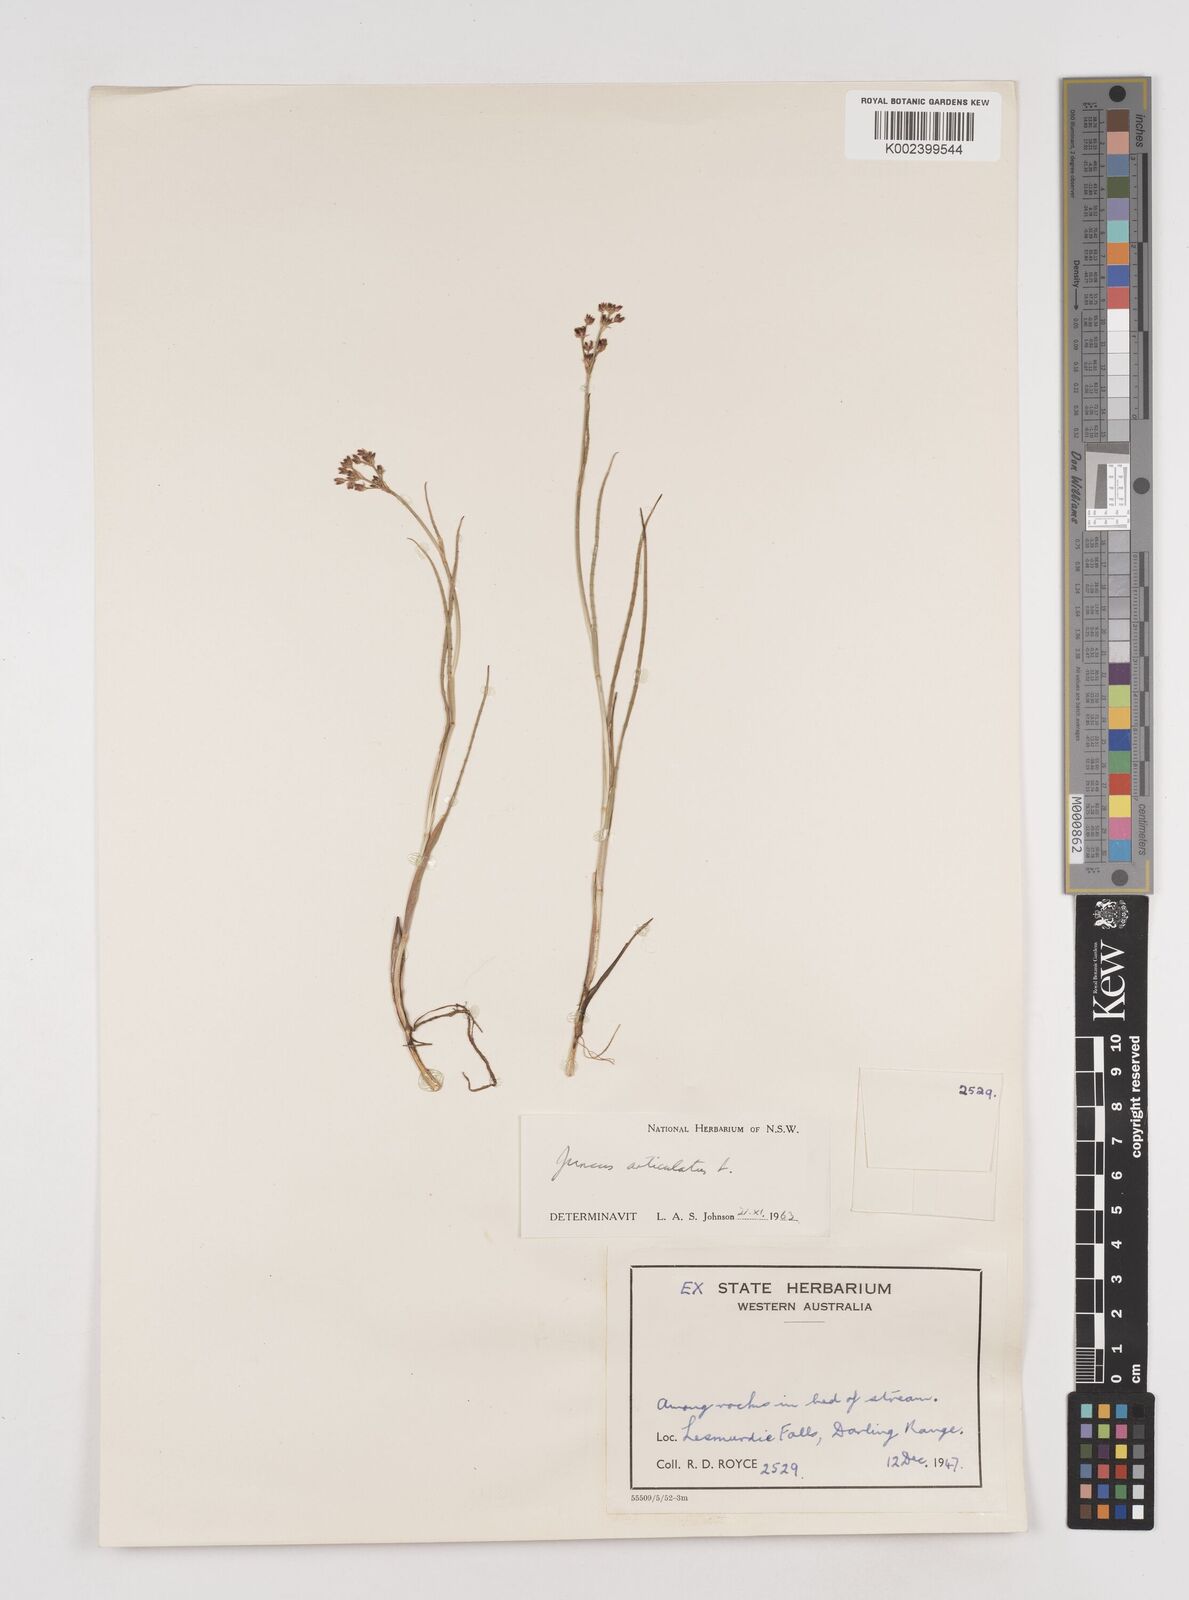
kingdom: Plantae
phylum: Tracheophyta
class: Liliopsida
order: Poales
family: Juncaceae
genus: Juncus
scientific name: Juncus articulatus
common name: Jointed rush
